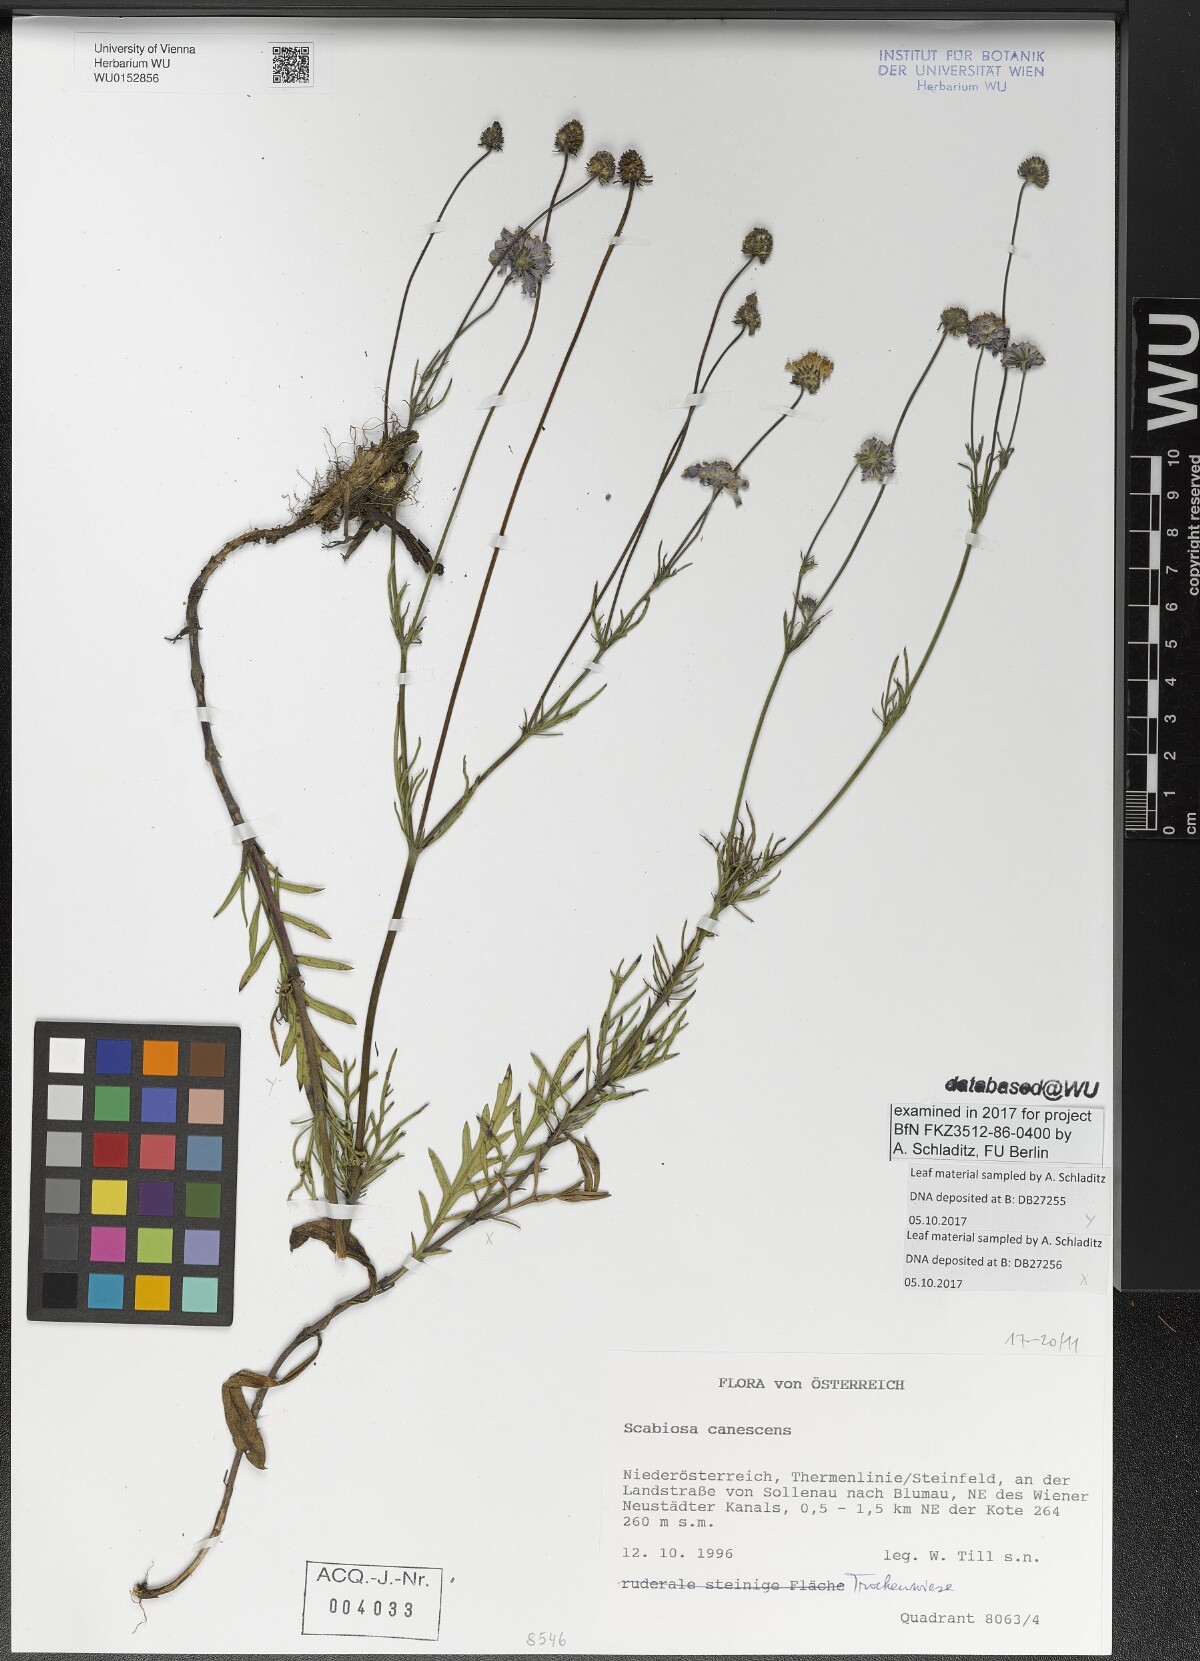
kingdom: Plantae
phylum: Tracheophyta
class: Magnoliopsida
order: Dipsacales
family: Caprifoliaceae
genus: Scabiosa
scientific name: Scabiosa canescens
